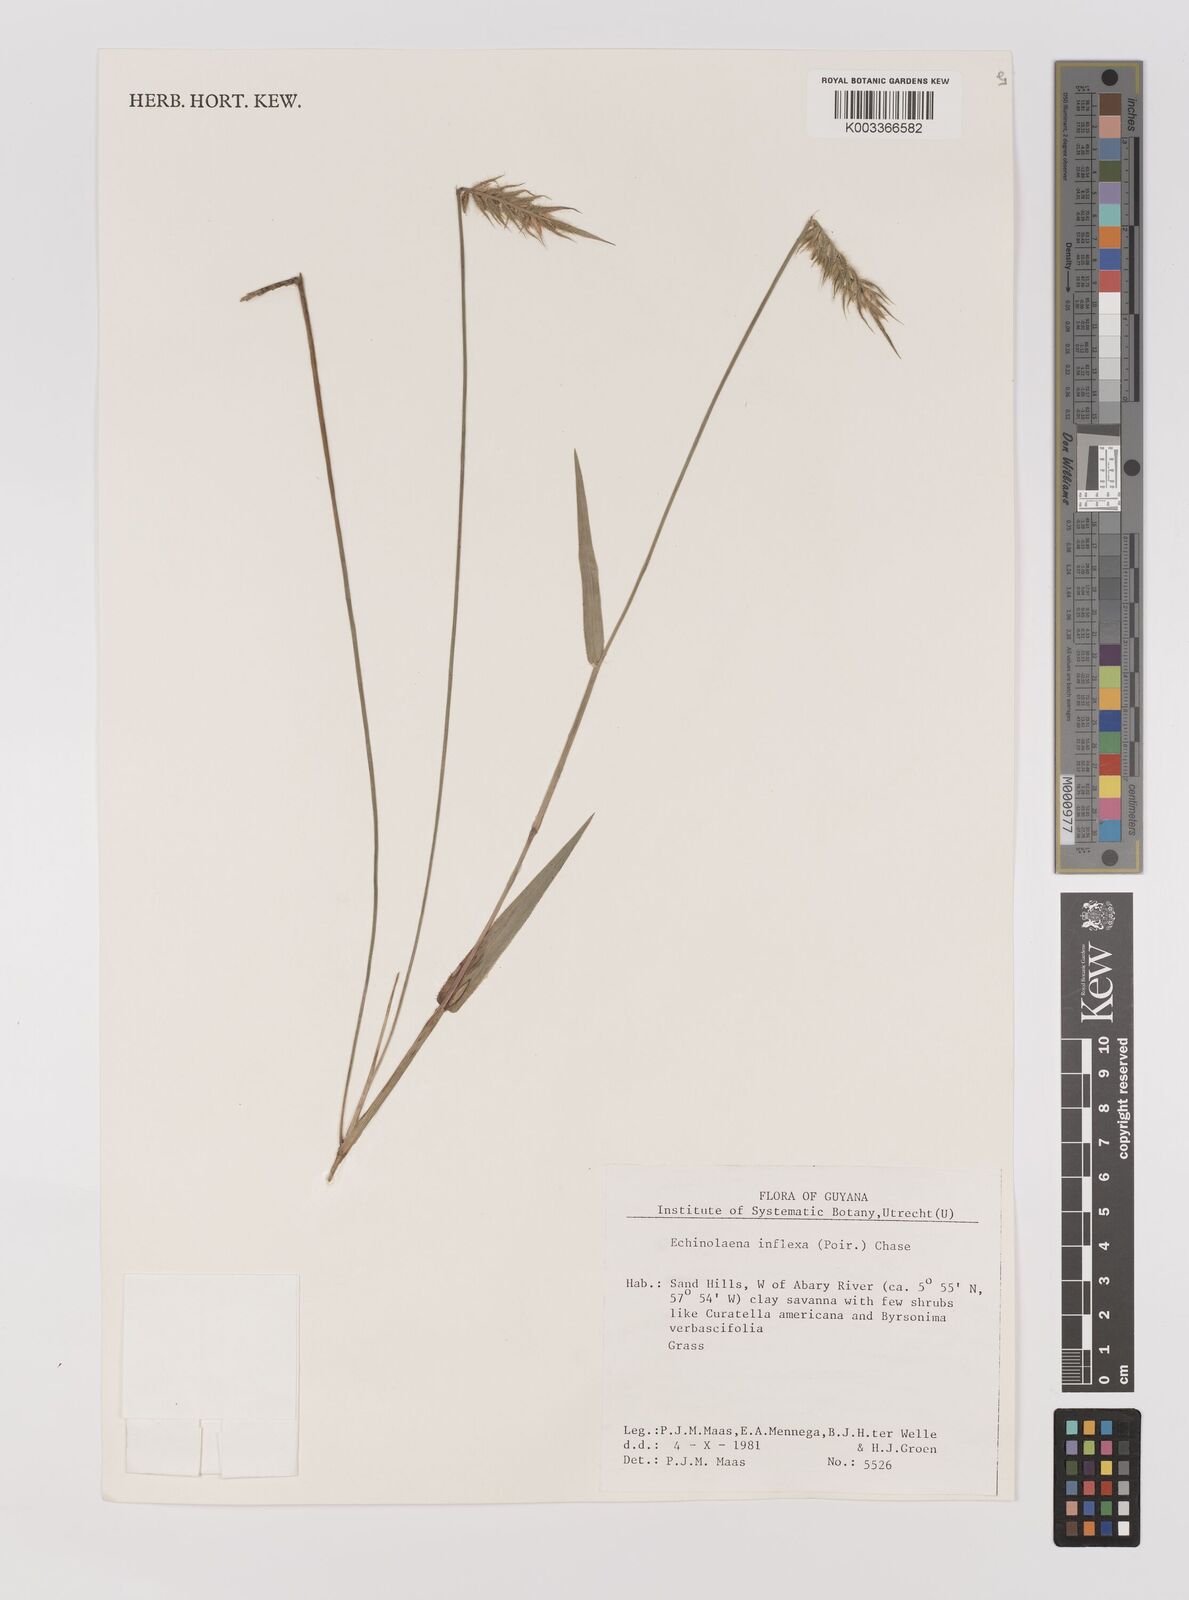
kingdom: Plantae
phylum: Tracheophyta
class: Liliopsida
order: Poales
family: Poaceae
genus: Echinolaena
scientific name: Echinolaena inflexa
